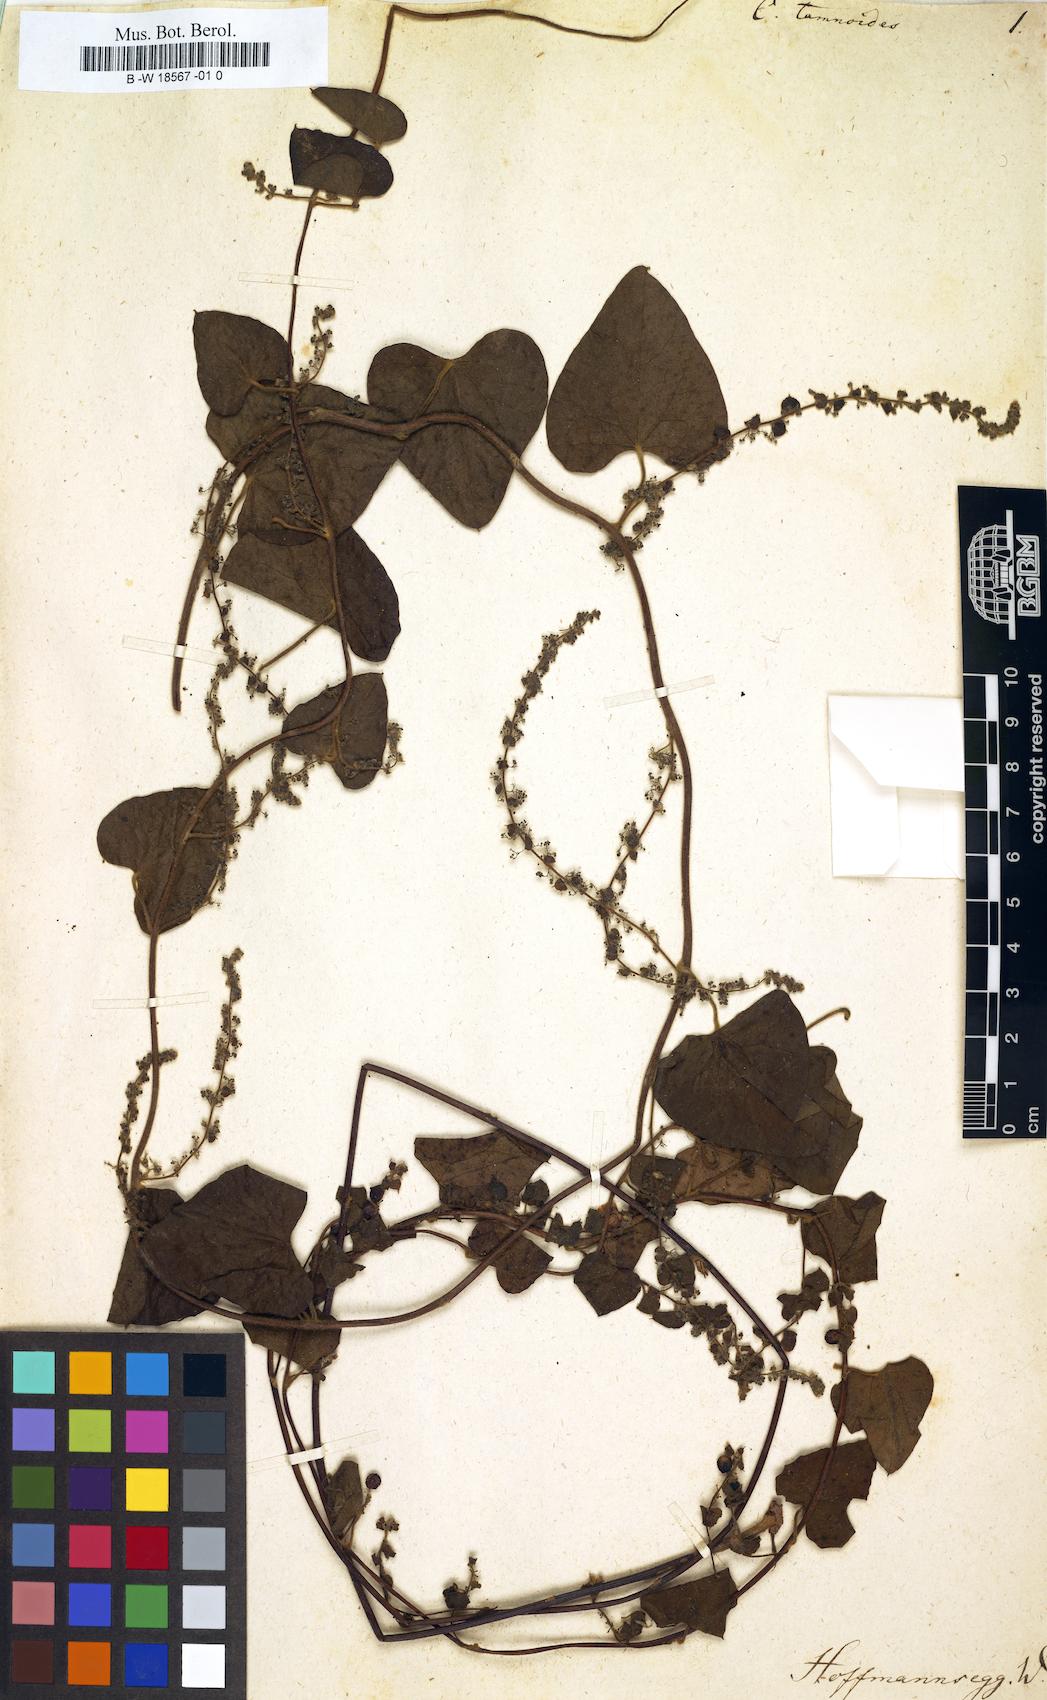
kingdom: Plantae
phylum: Tracheophyta
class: Magnoliopsida
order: Ranunculales
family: Menispermaceae
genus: Cissampelos
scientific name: Cissampelos
